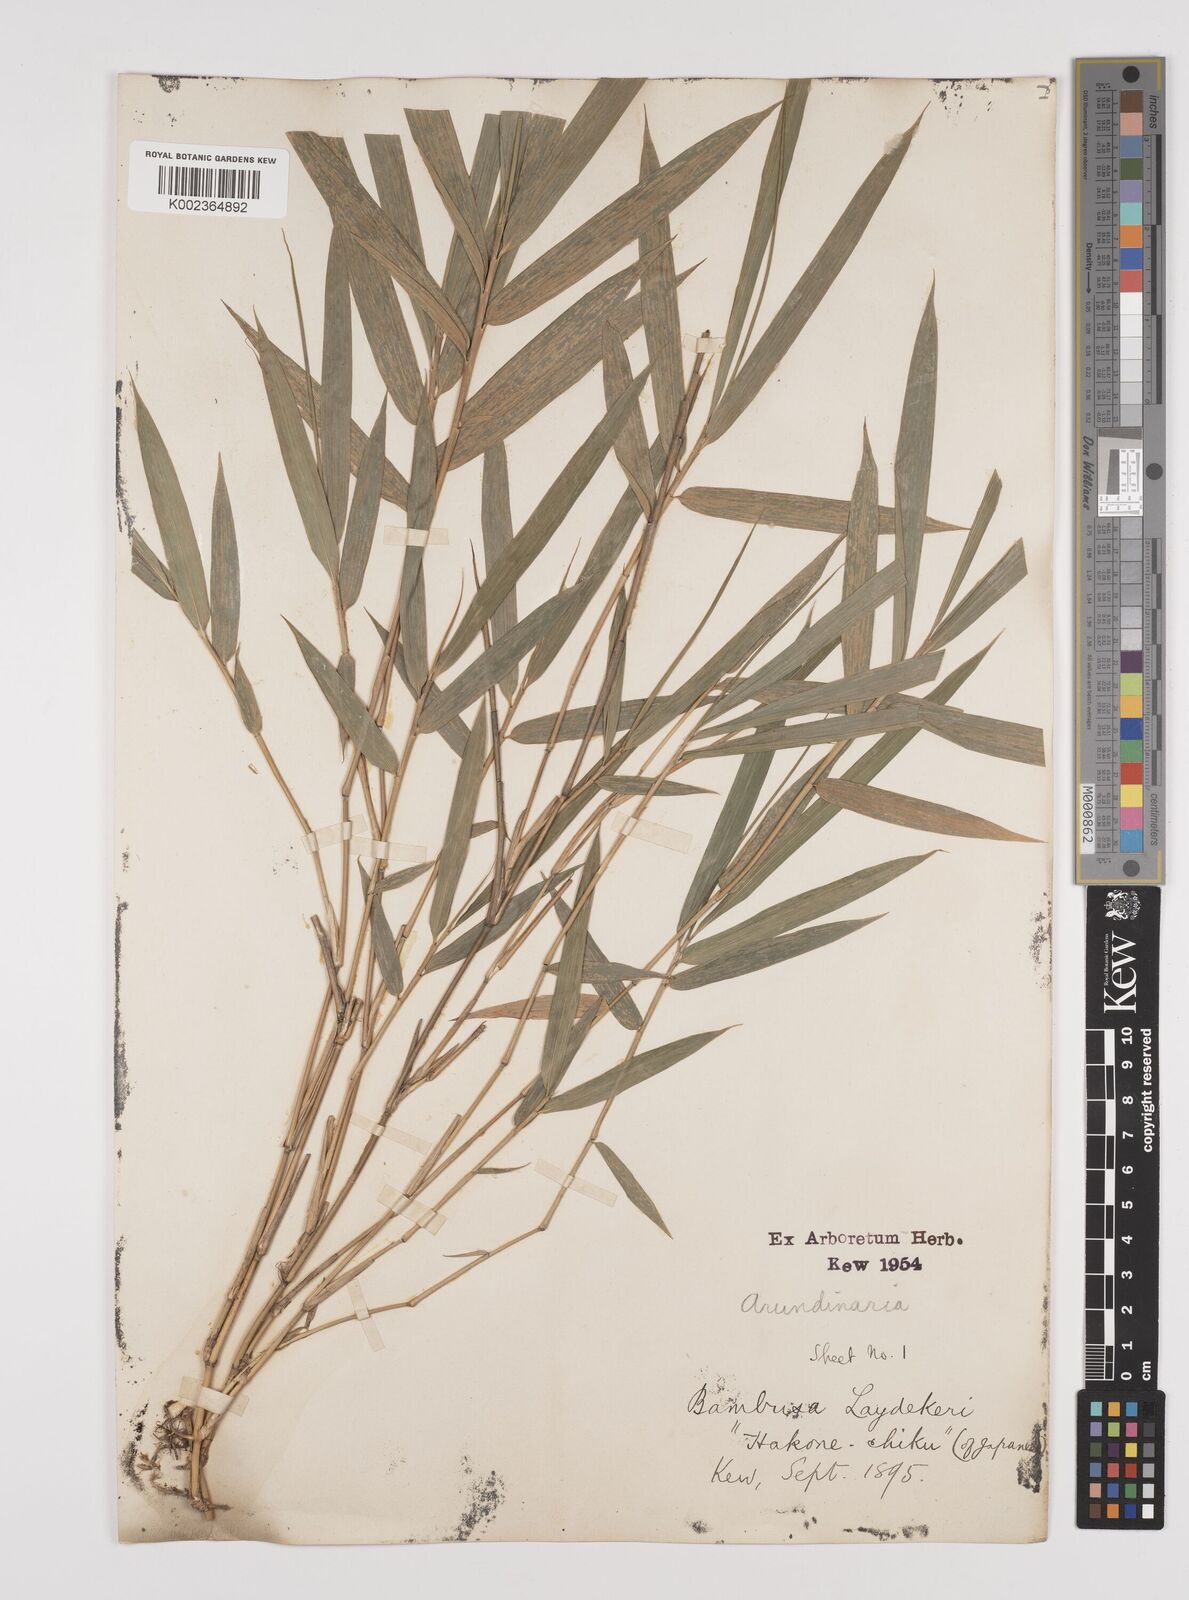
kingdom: Plantae
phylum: Tracheophyta
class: Liliopsida
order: Poales
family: Poaceae
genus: Pleioblastus
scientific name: Pleioblastus argenteostriatus
